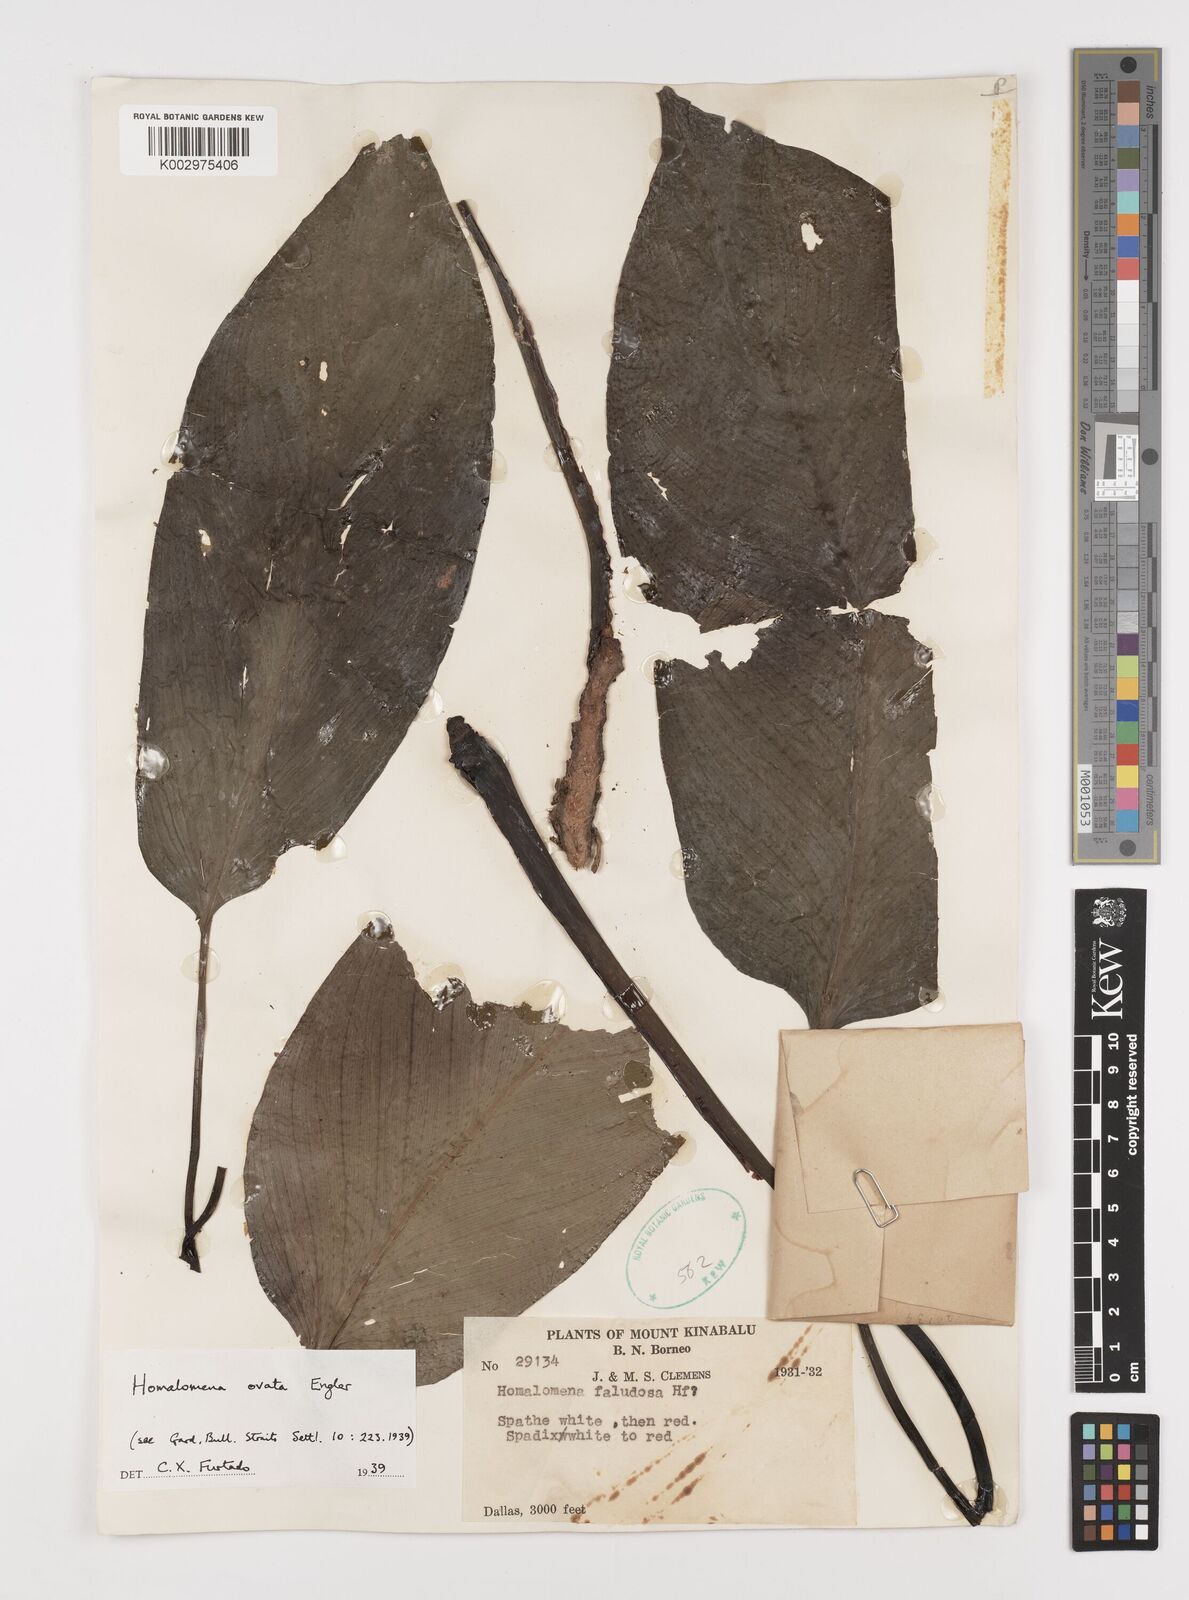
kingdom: Plantae
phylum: Tracheophyta
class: Liliopsida
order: Alismatales
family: Araceae
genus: Homalomena
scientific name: Homalomena ovata
